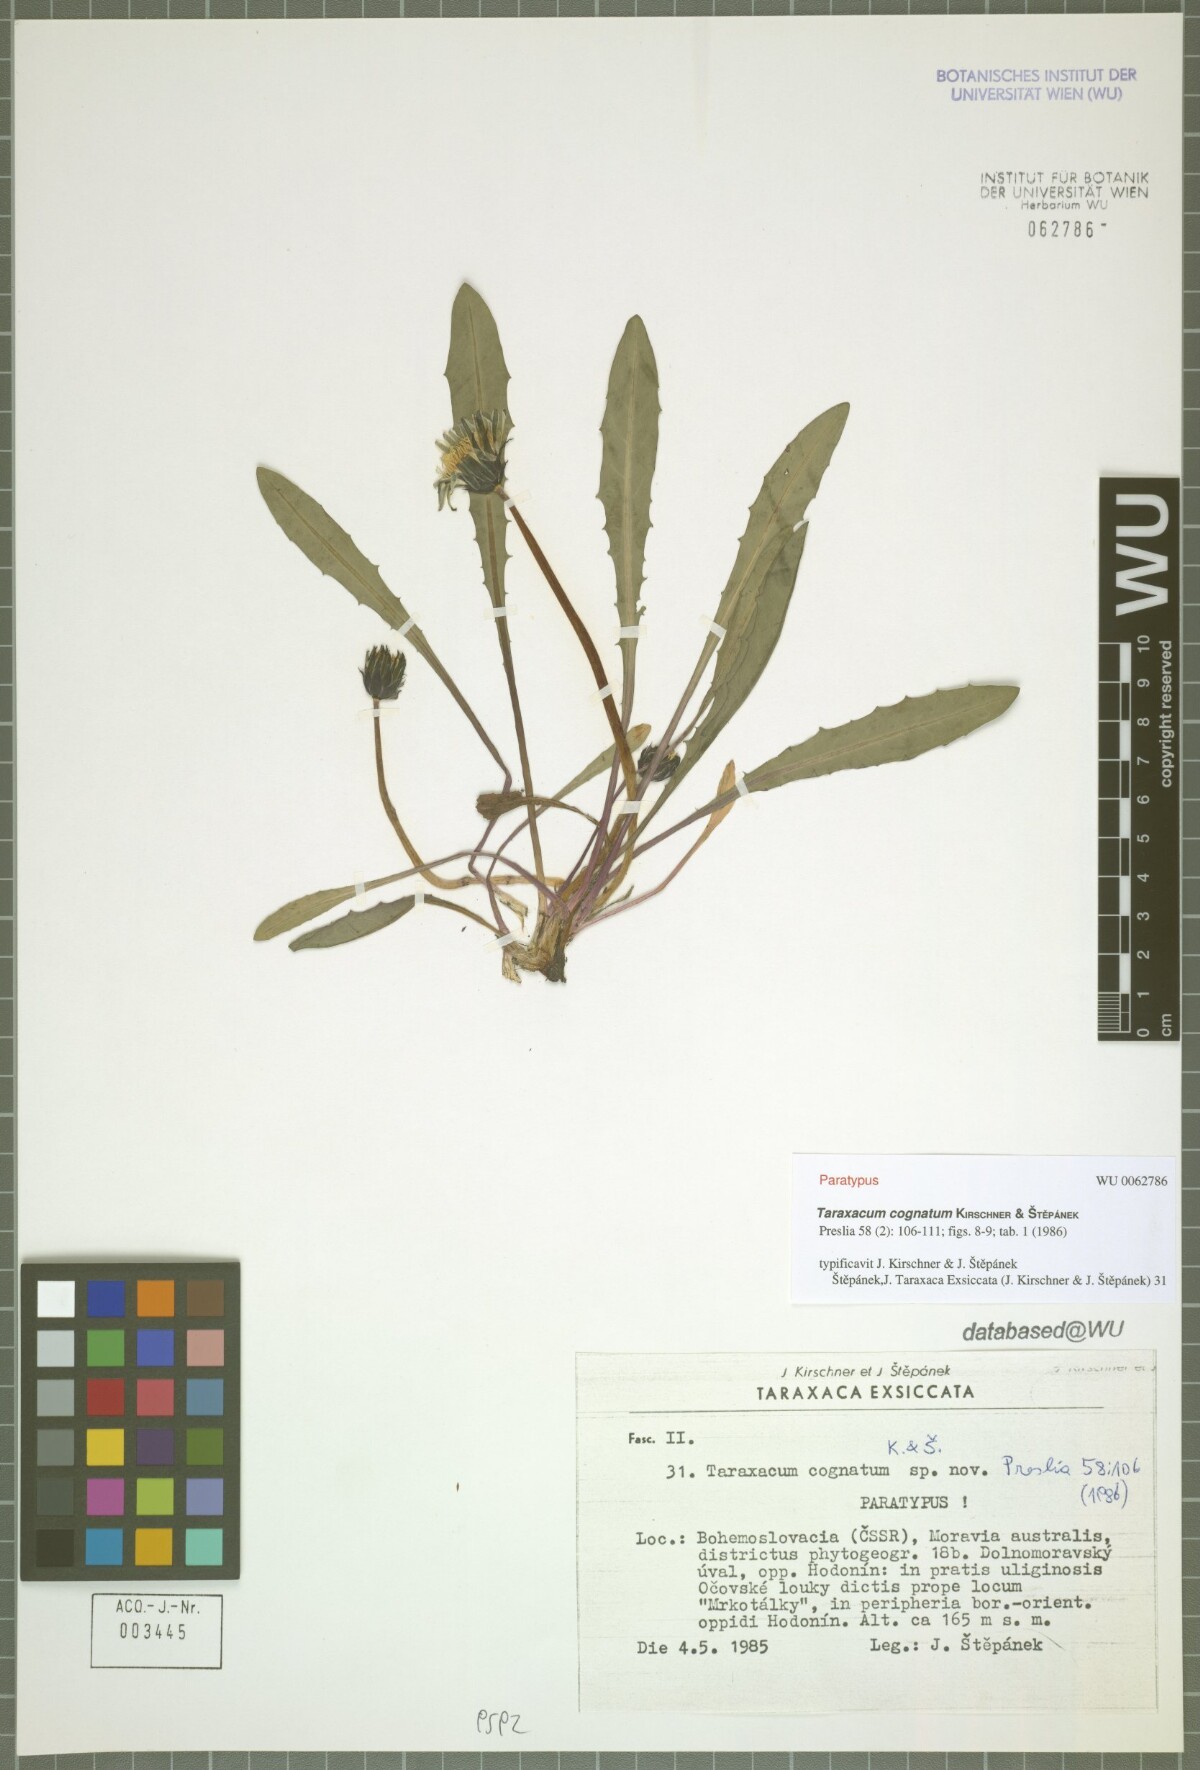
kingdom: Plantae
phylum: Tracheophyta
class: Magnoliopsida
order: Asterales
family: Asteraceae
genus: Taraxacum
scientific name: Taraxacum cognatum
